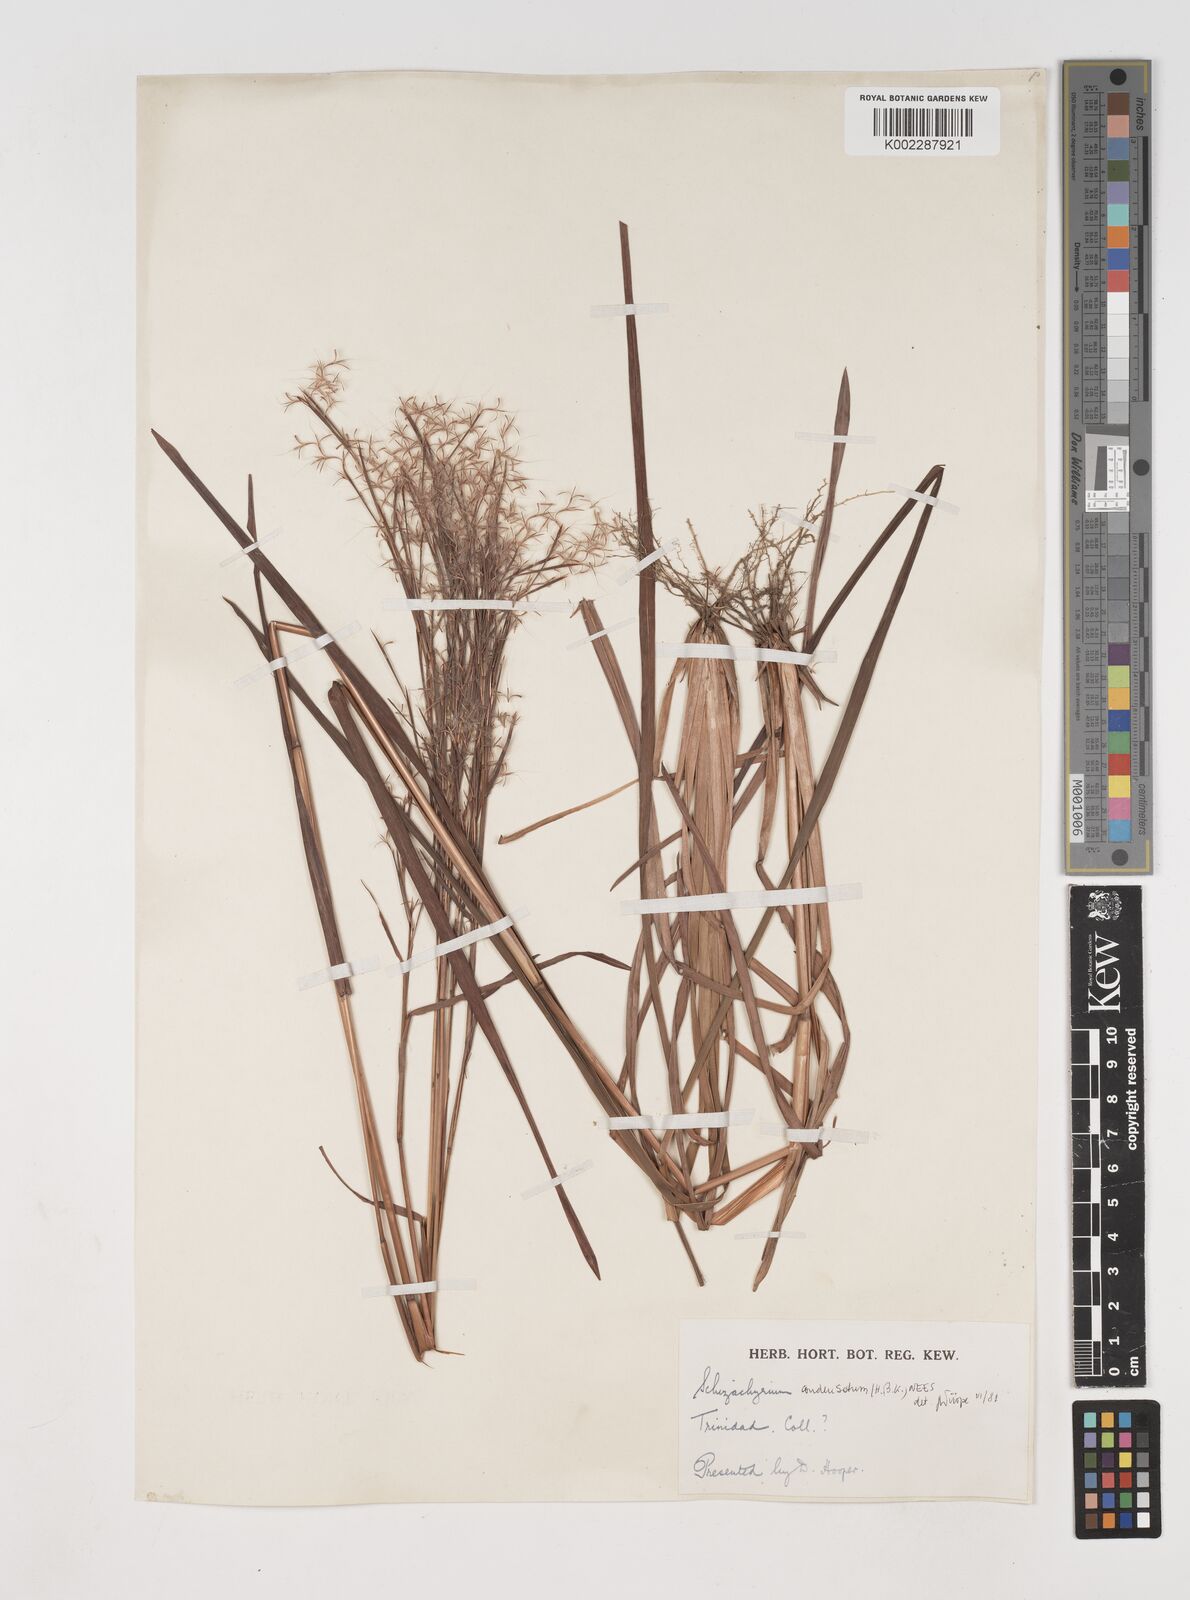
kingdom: Plantae
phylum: Tracheophyta
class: Liliopsida
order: Poales
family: Poaceae
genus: Schizachyrium
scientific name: Schizachyrium condensatum
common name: Bush beardgrass
